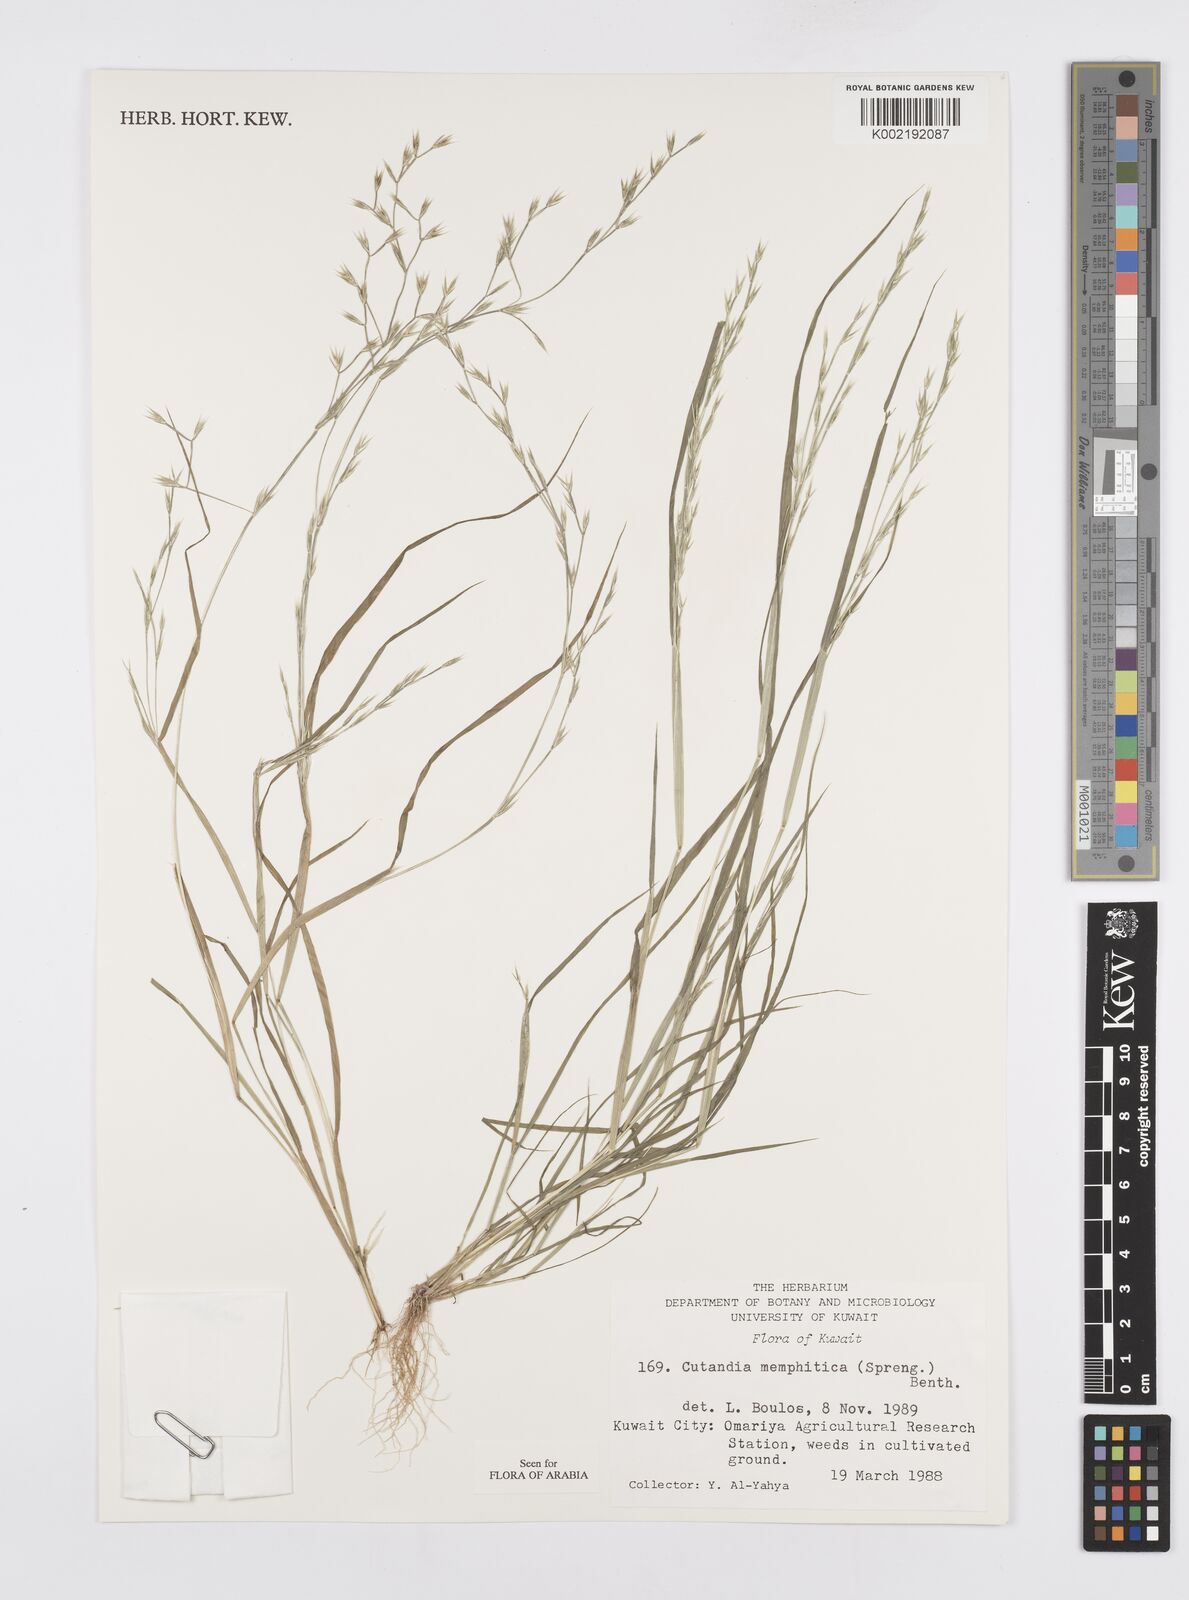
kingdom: Plantae
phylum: Tracheophyta
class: Liliopsida
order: Poales
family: Poaceae
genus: Cutandia
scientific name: Cutandia memphitica
